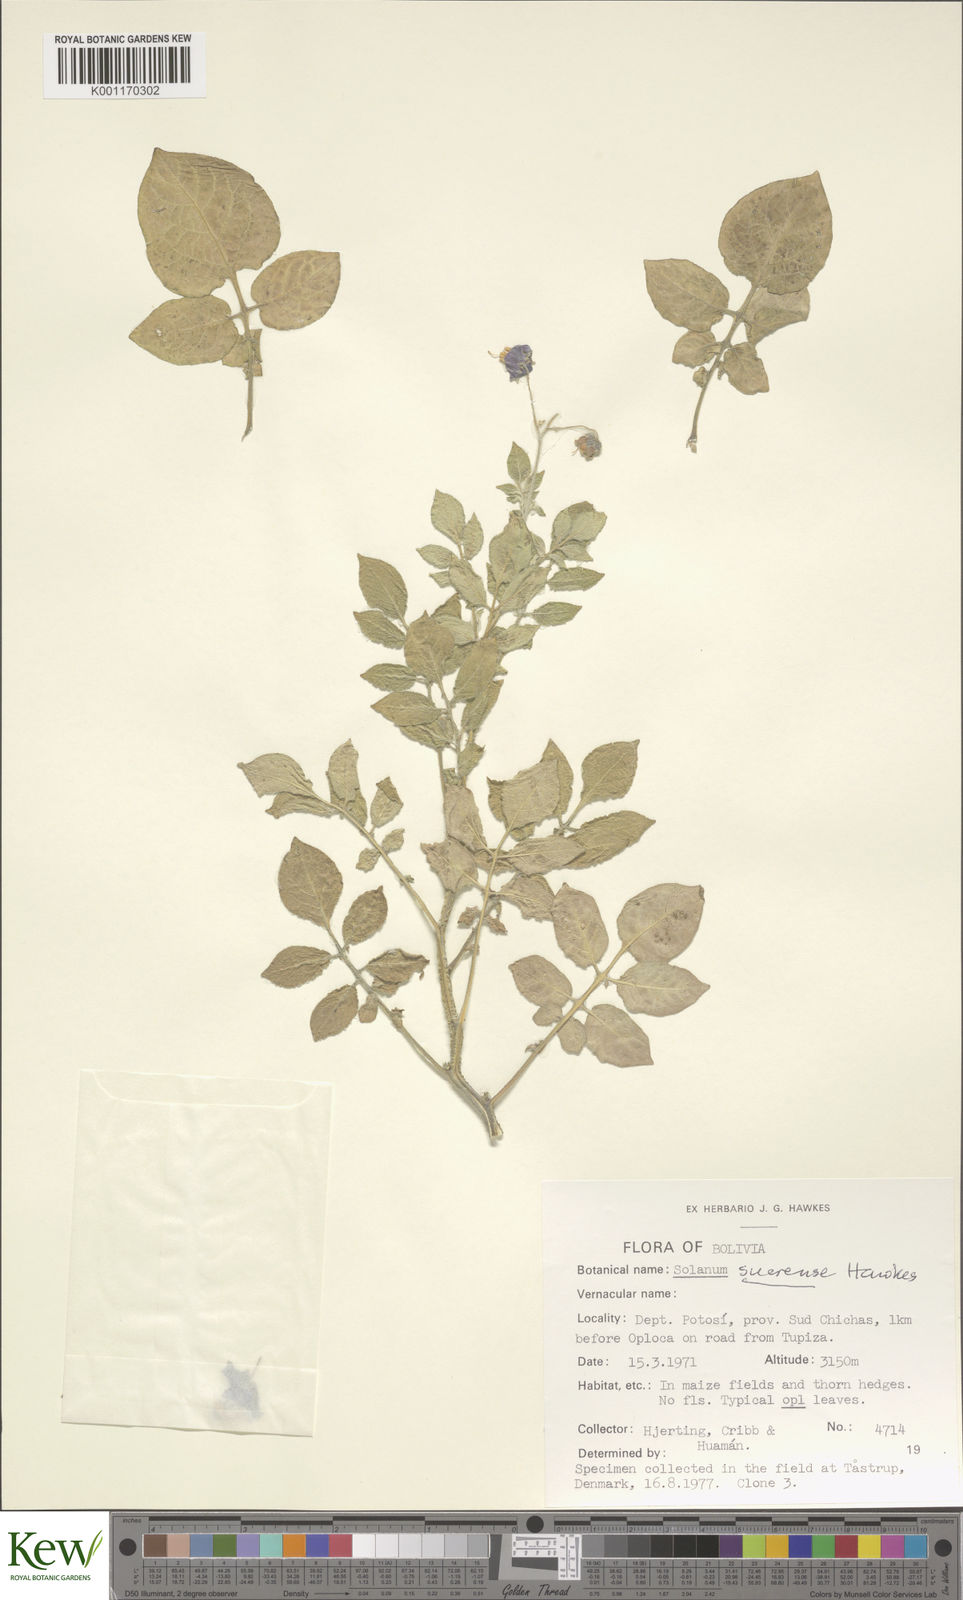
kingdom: Plantae
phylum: Tracheophyta
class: Magnoliopsida
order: Solanales
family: Solanaceae
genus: Solanum
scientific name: Solanum brevicaule
